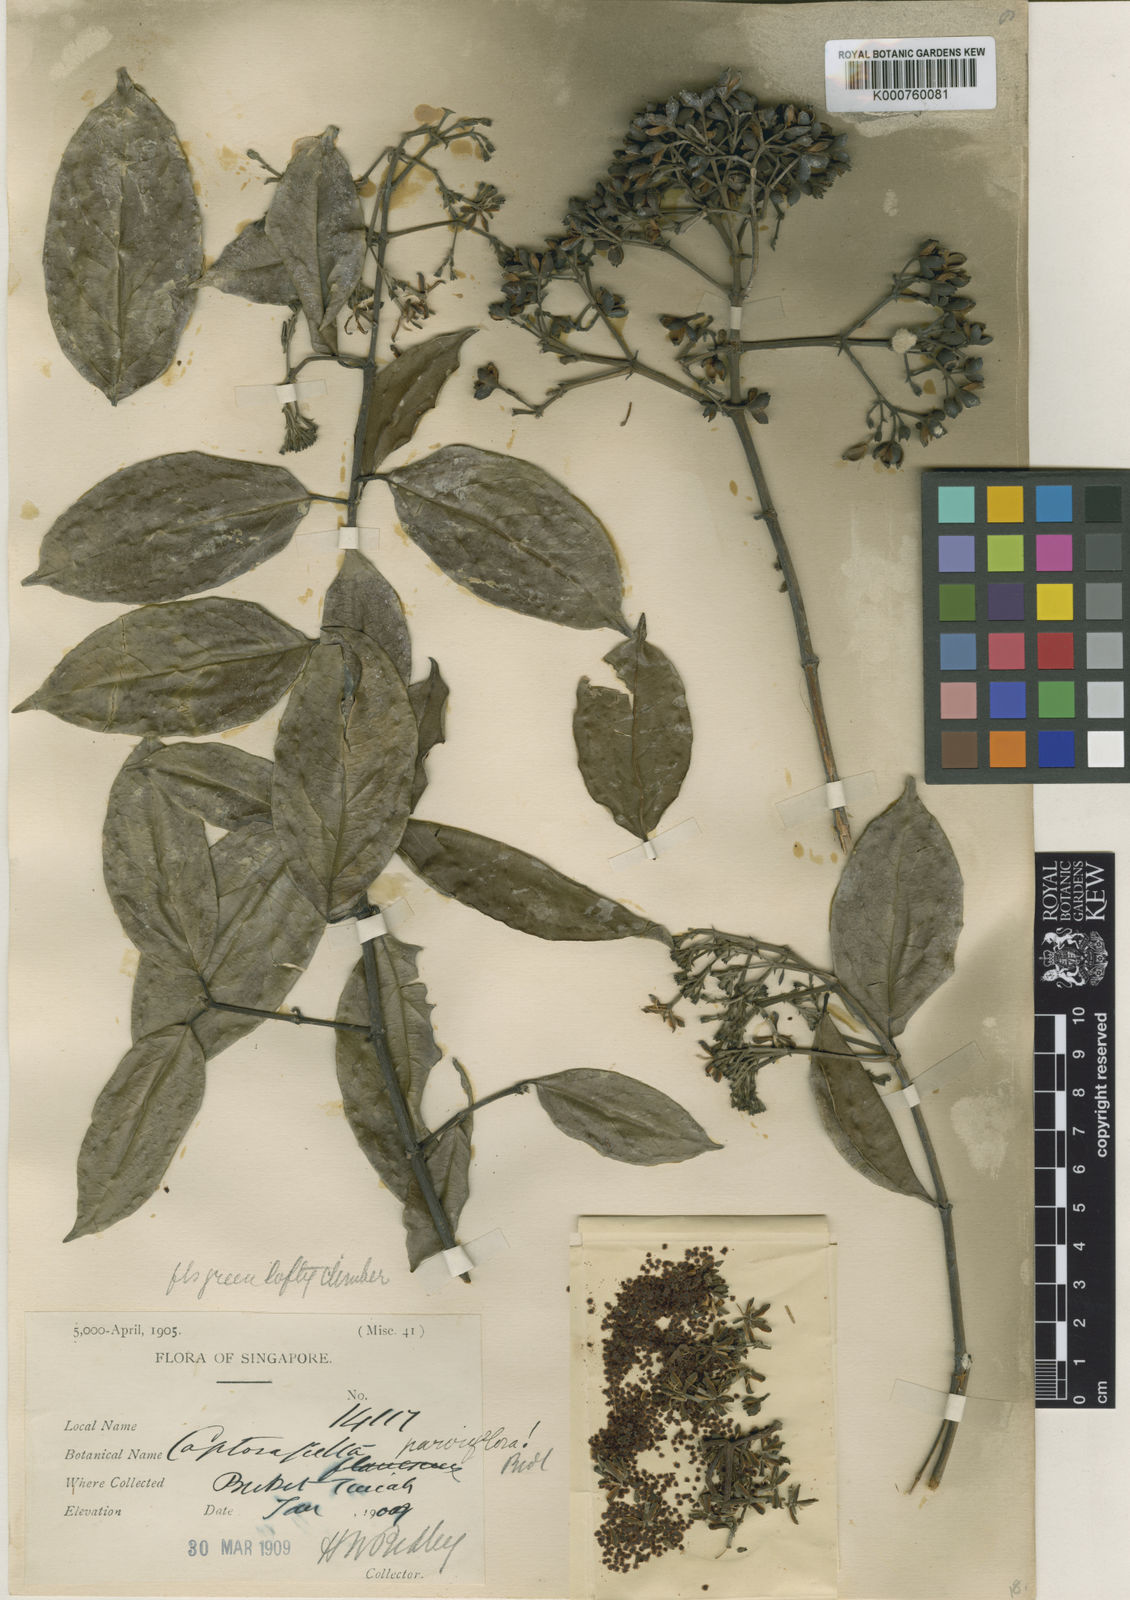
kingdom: Plantae
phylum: Tracheophyta
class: Magnoliopsida
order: Gentianales
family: Rubiaceae
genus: Coptosapelta
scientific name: Coptosapelta parviflora
